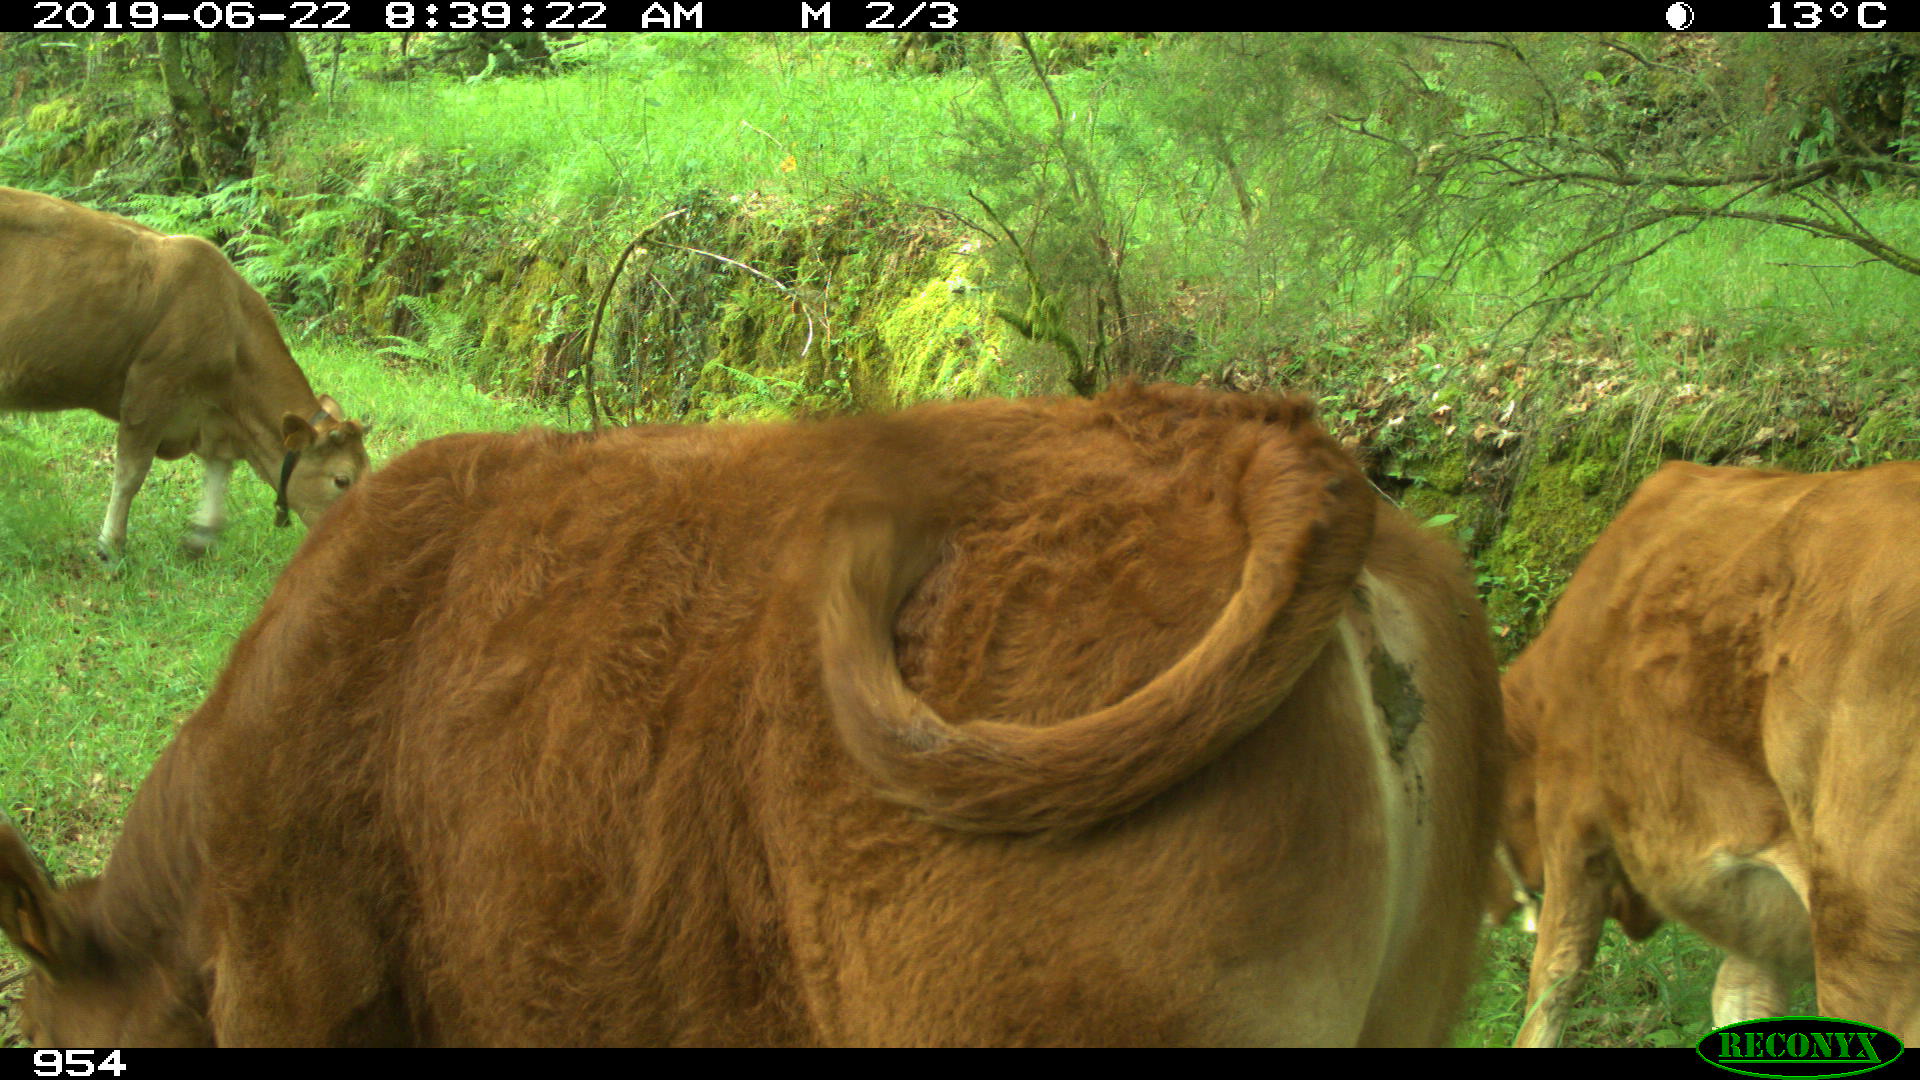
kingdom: Animalia
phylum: Chordata
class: Mammalia
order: Artiodactyla
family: Bovidae
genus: Bos
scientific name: Bos taurus
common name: Domesticated cattle
